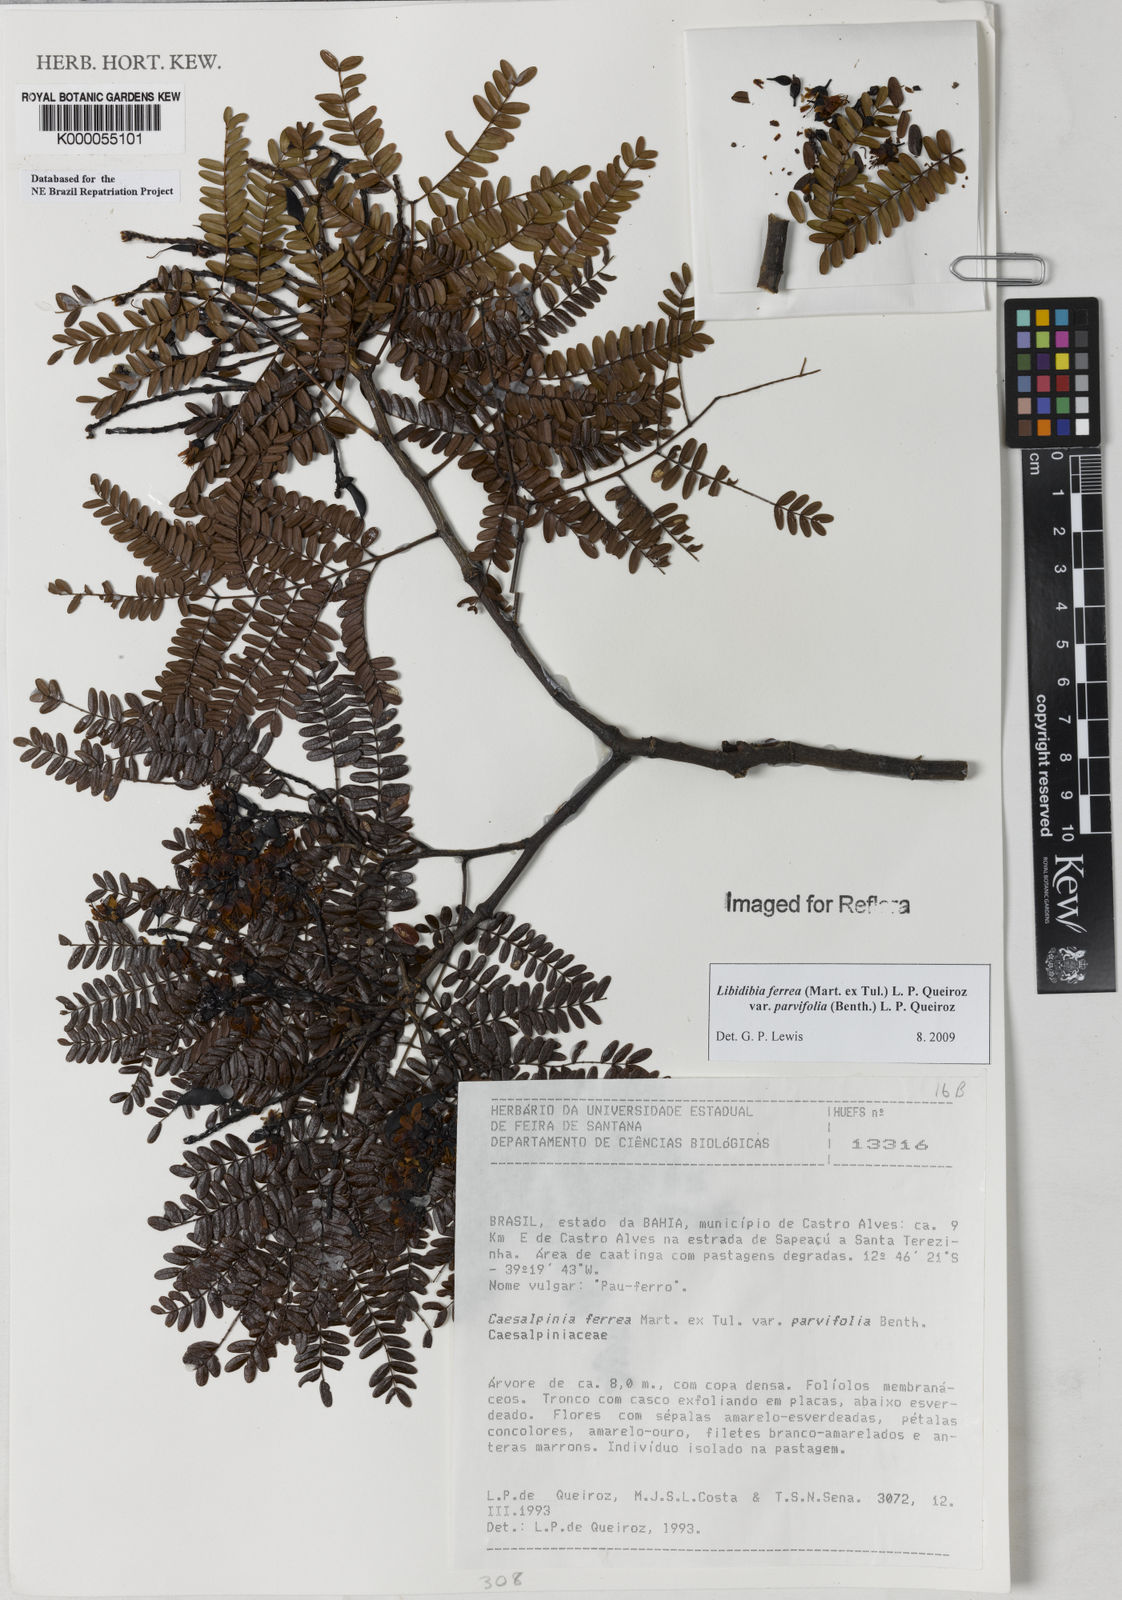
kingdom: Plantae
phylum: Tracheophyta
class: Magnoliopsida
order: Fabales
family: Fabaceae
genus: Libidibia
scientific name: Libidibia ferrea
